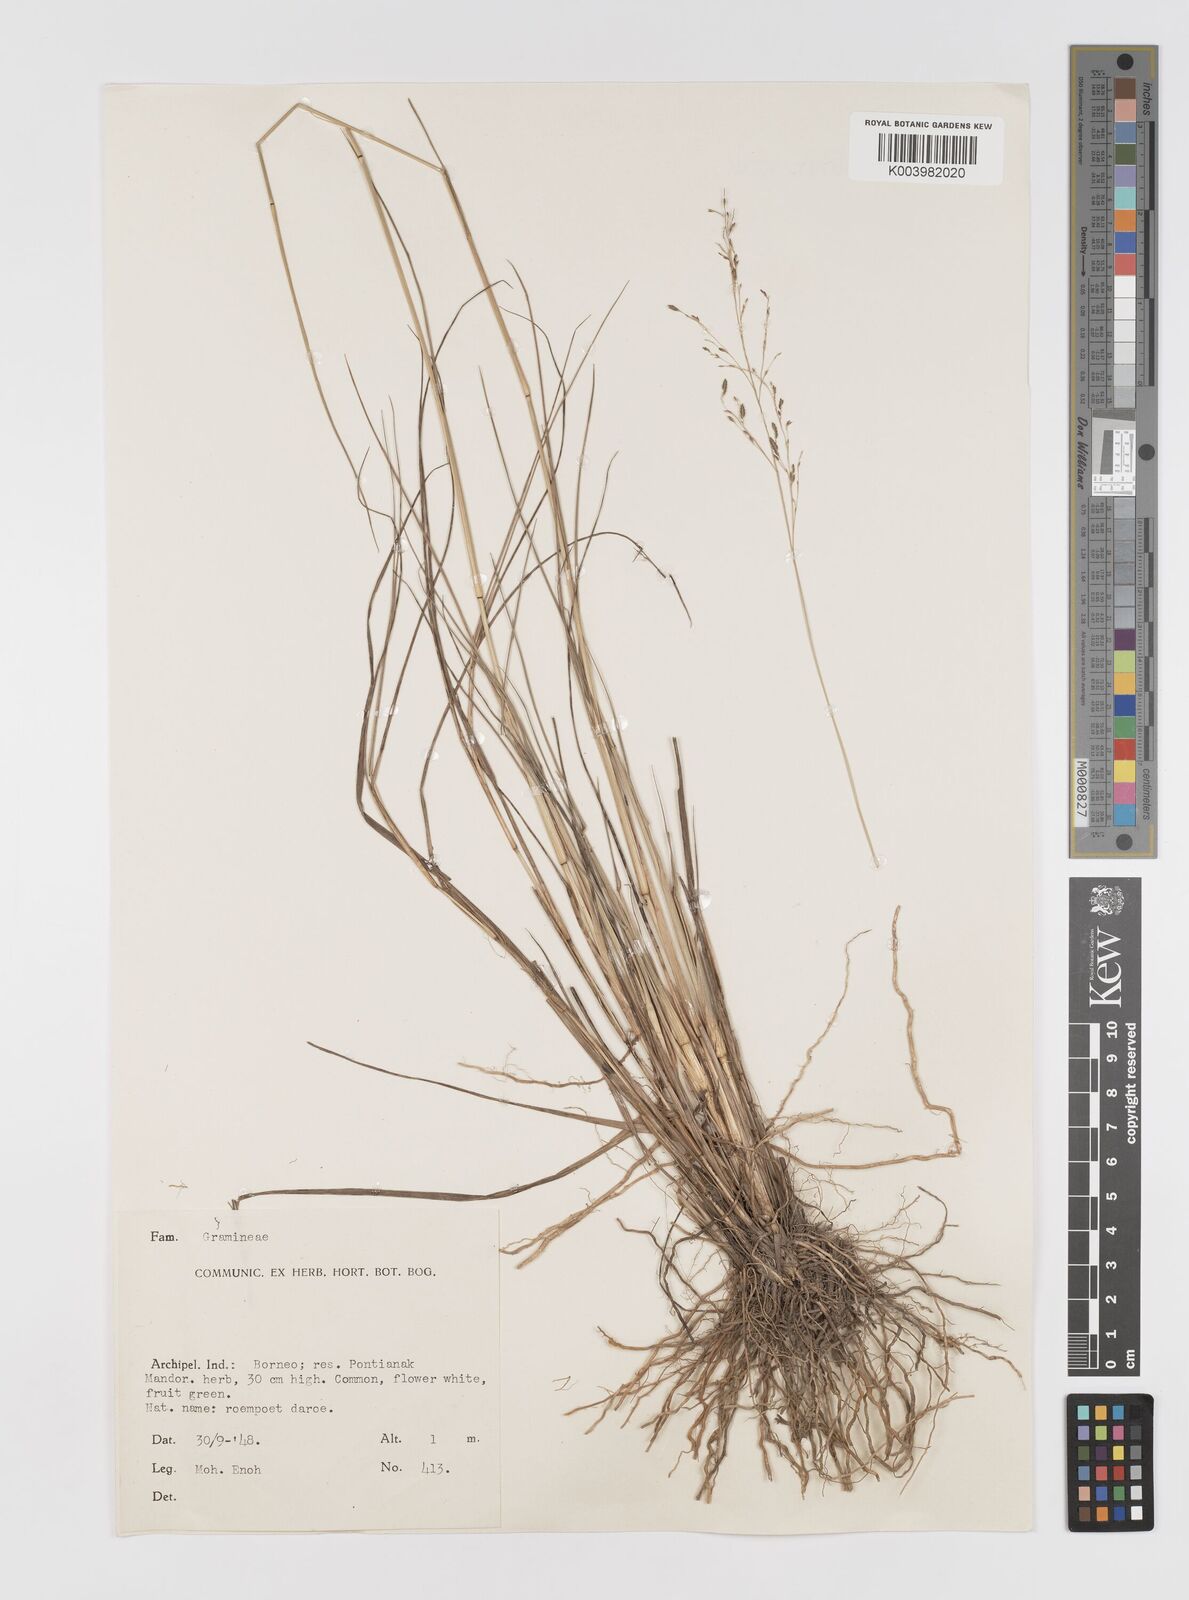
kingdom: Plantae
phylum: Tracheophyta
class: Liliopsida
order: Poales
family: Poaceae
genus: Eragrostis
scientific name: Eragrostis atrovirens
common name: Thalia lovegrass
